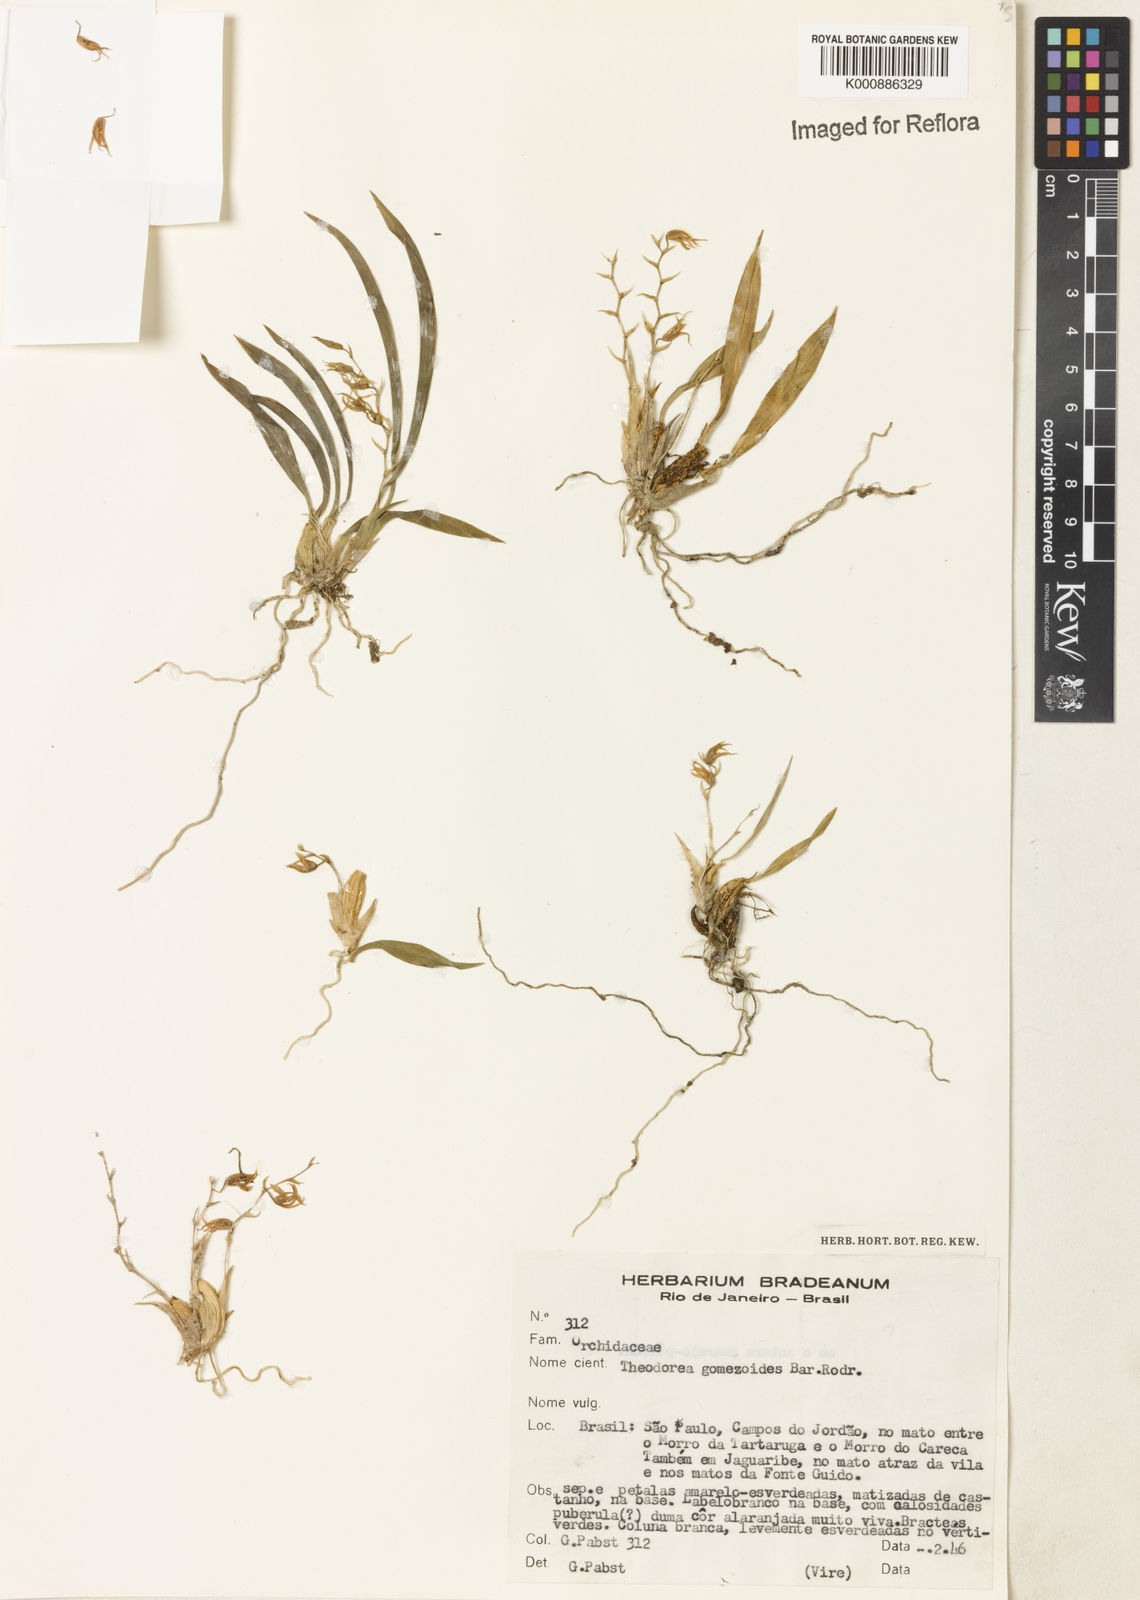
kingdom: Plantae
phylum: Tracheophyta
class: Liliopsida
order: Asparagales
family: Orchidaceae
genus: Gomesa
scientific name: Gomesa gomezoides
